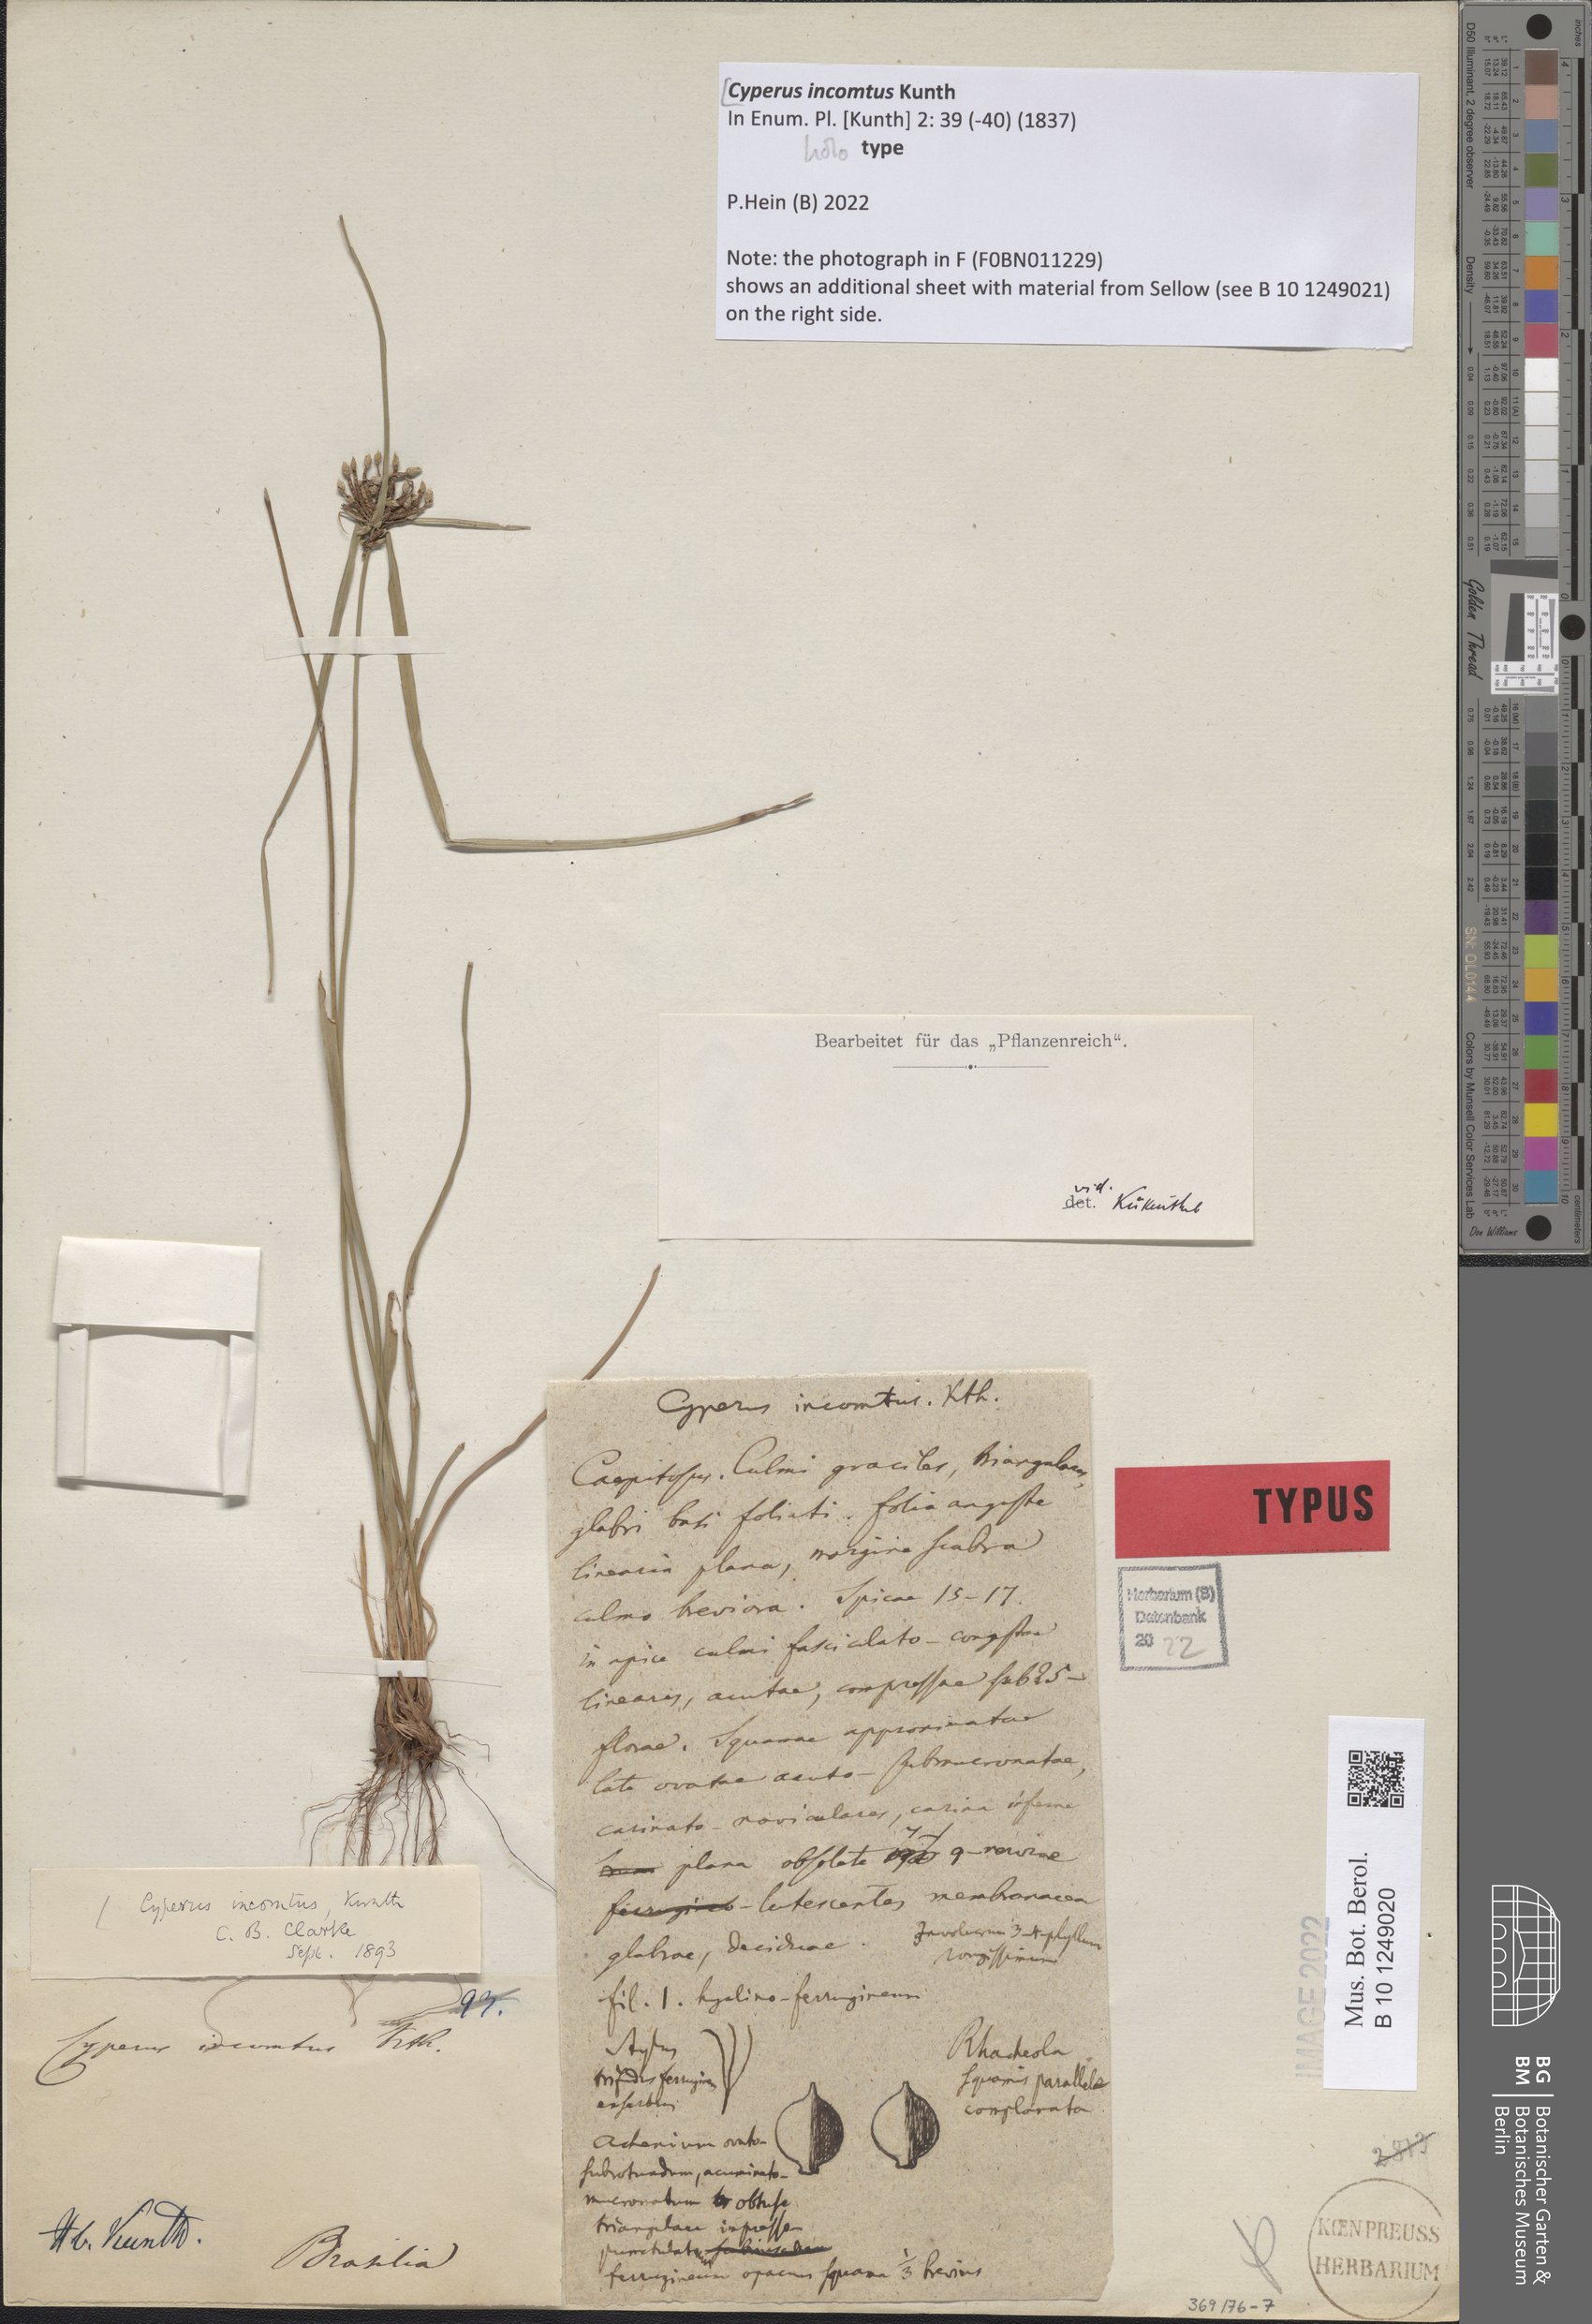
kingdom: Plantae
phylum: Tracheophyta
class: Liliopsida
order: Poales
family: Cyperaceae
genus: Cyperus
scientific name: Cyperus incomtus
